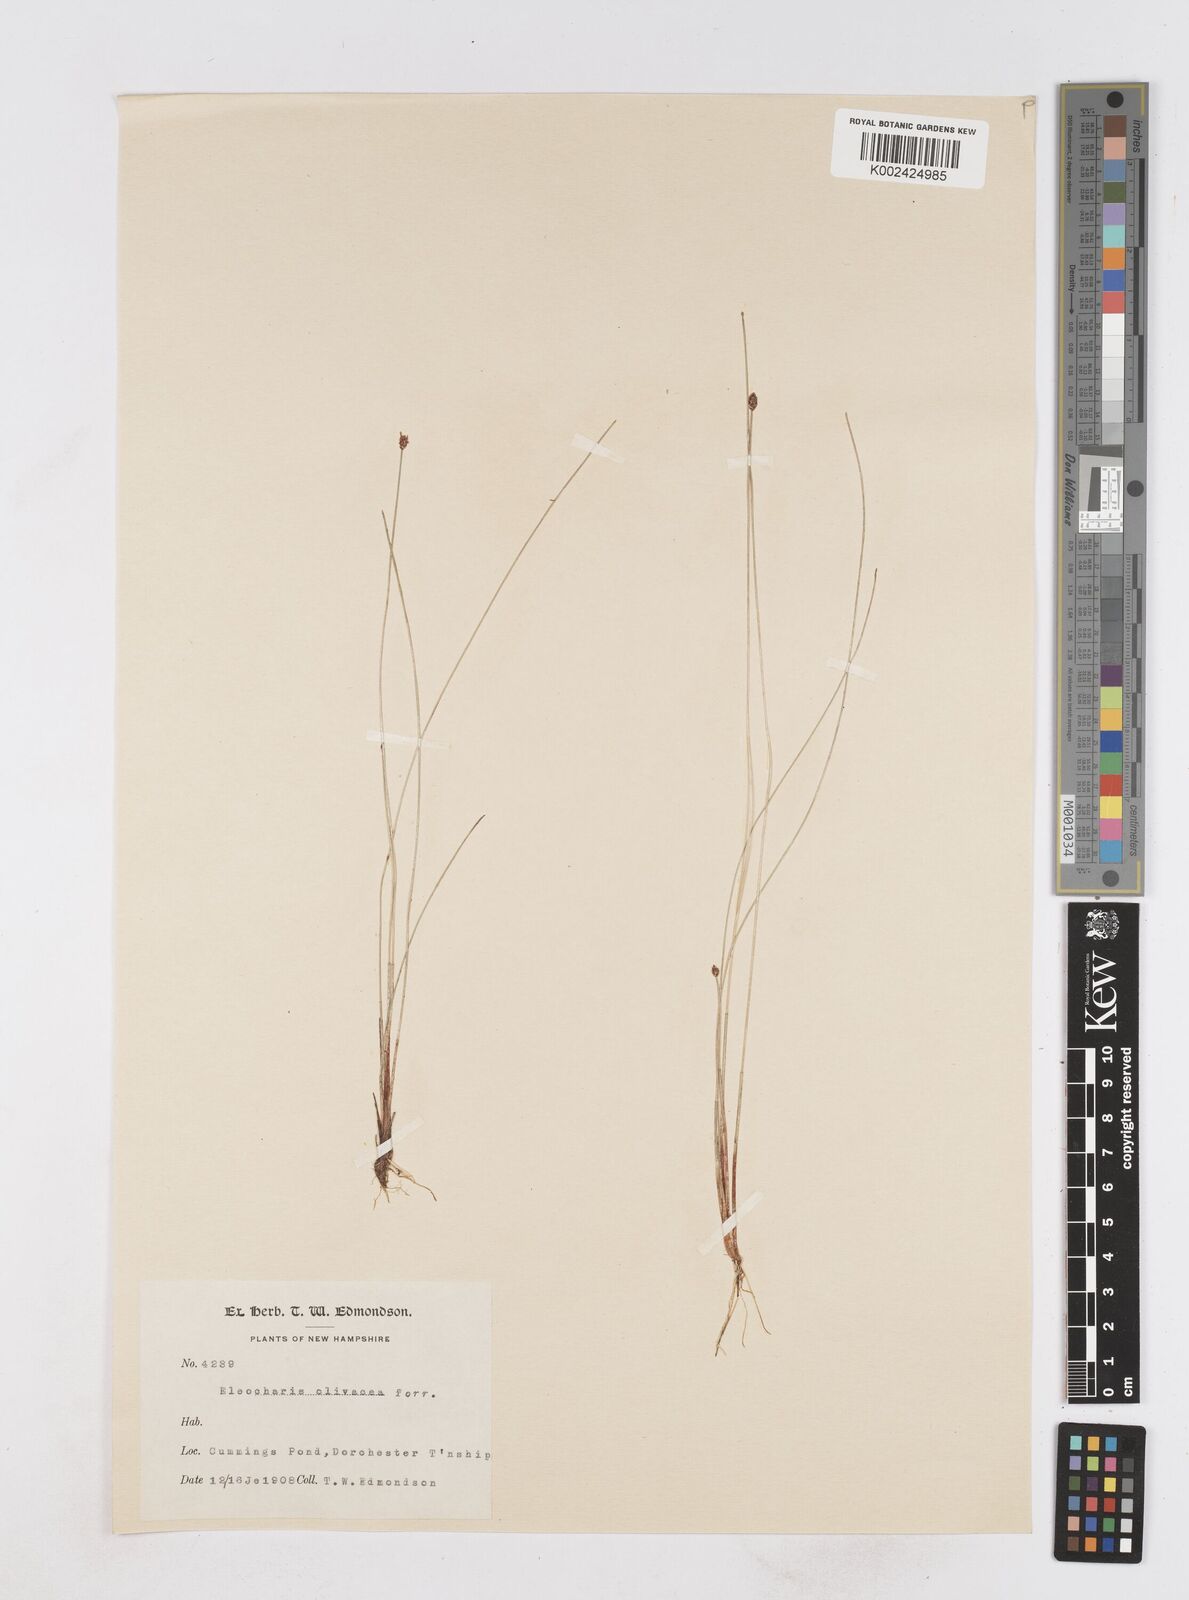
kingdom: Plantae
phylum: Tracheophyta
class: Liliopsida
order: Poales
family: Cyperaceae
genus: Eleocharis
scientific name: Eleocharis flavescens
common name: Yellow spikerush
